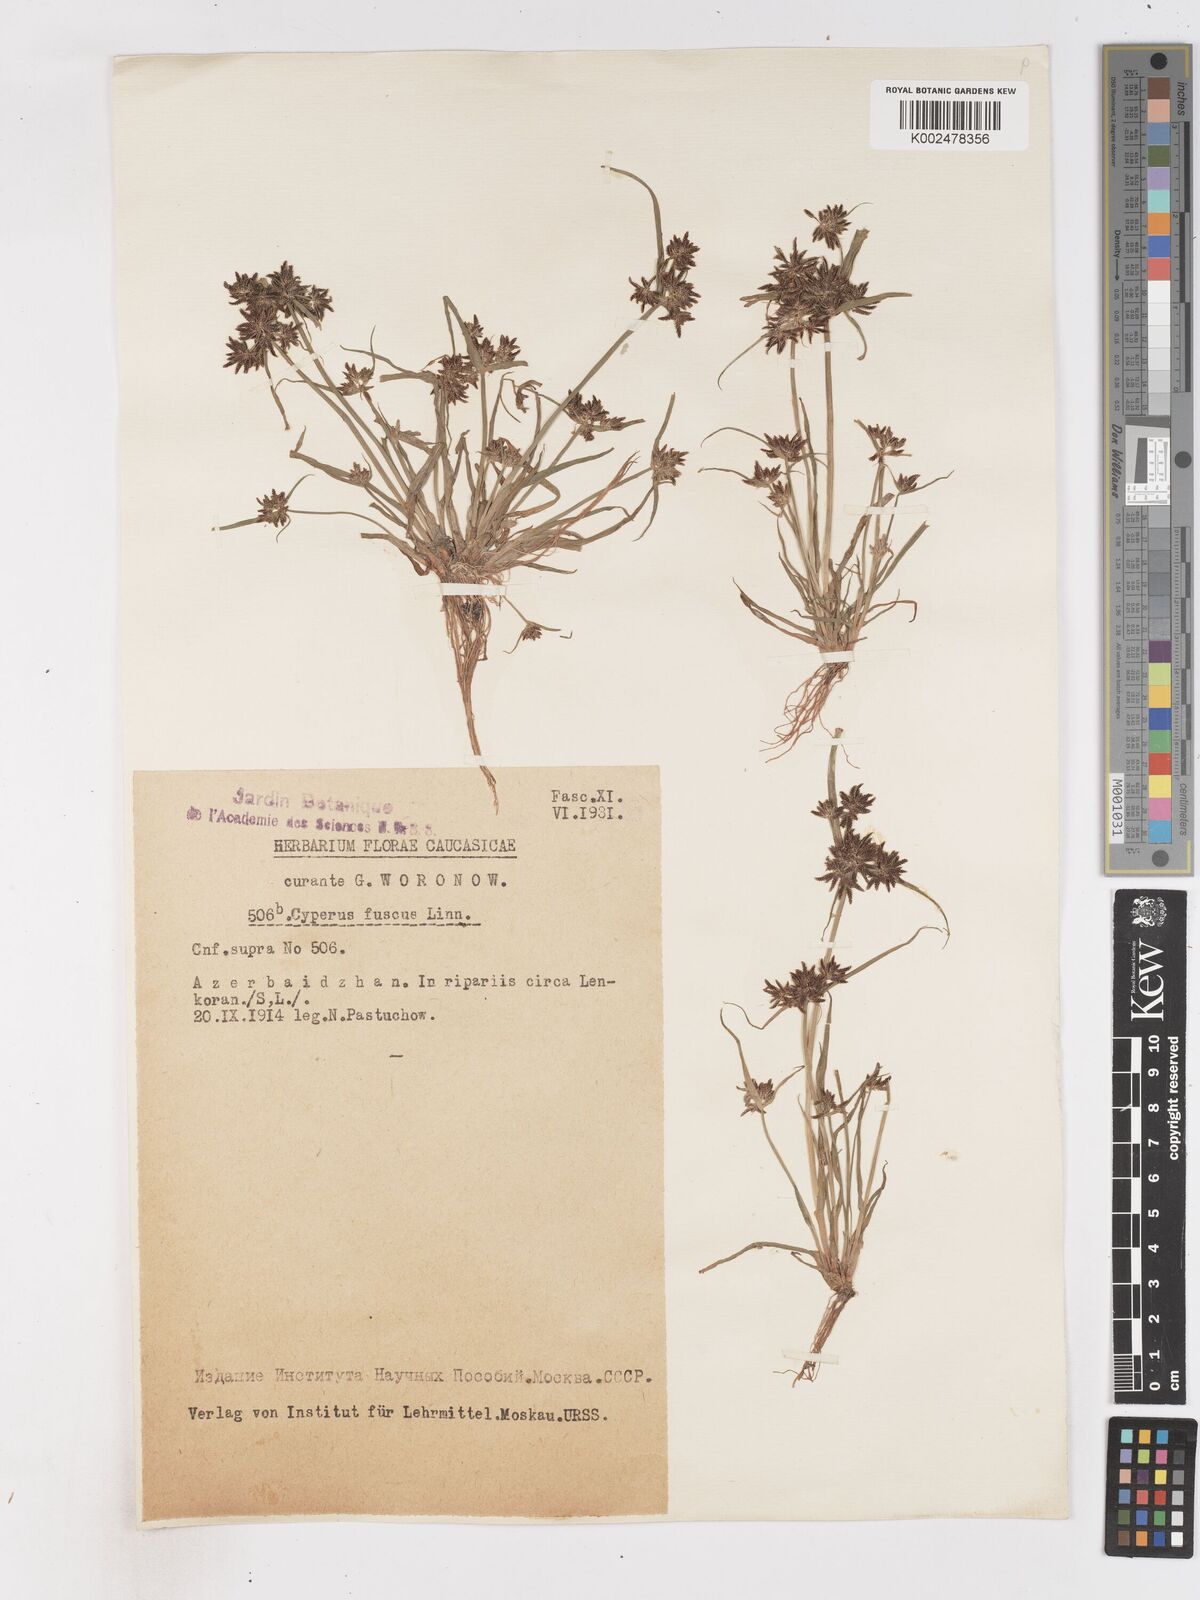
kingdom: Plantae
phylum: Tracheophyta
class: Liliopsida
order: Poales
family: Cyperaceae
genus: Cyperus
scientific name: Cyperus fuscus
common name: Brown galingale
